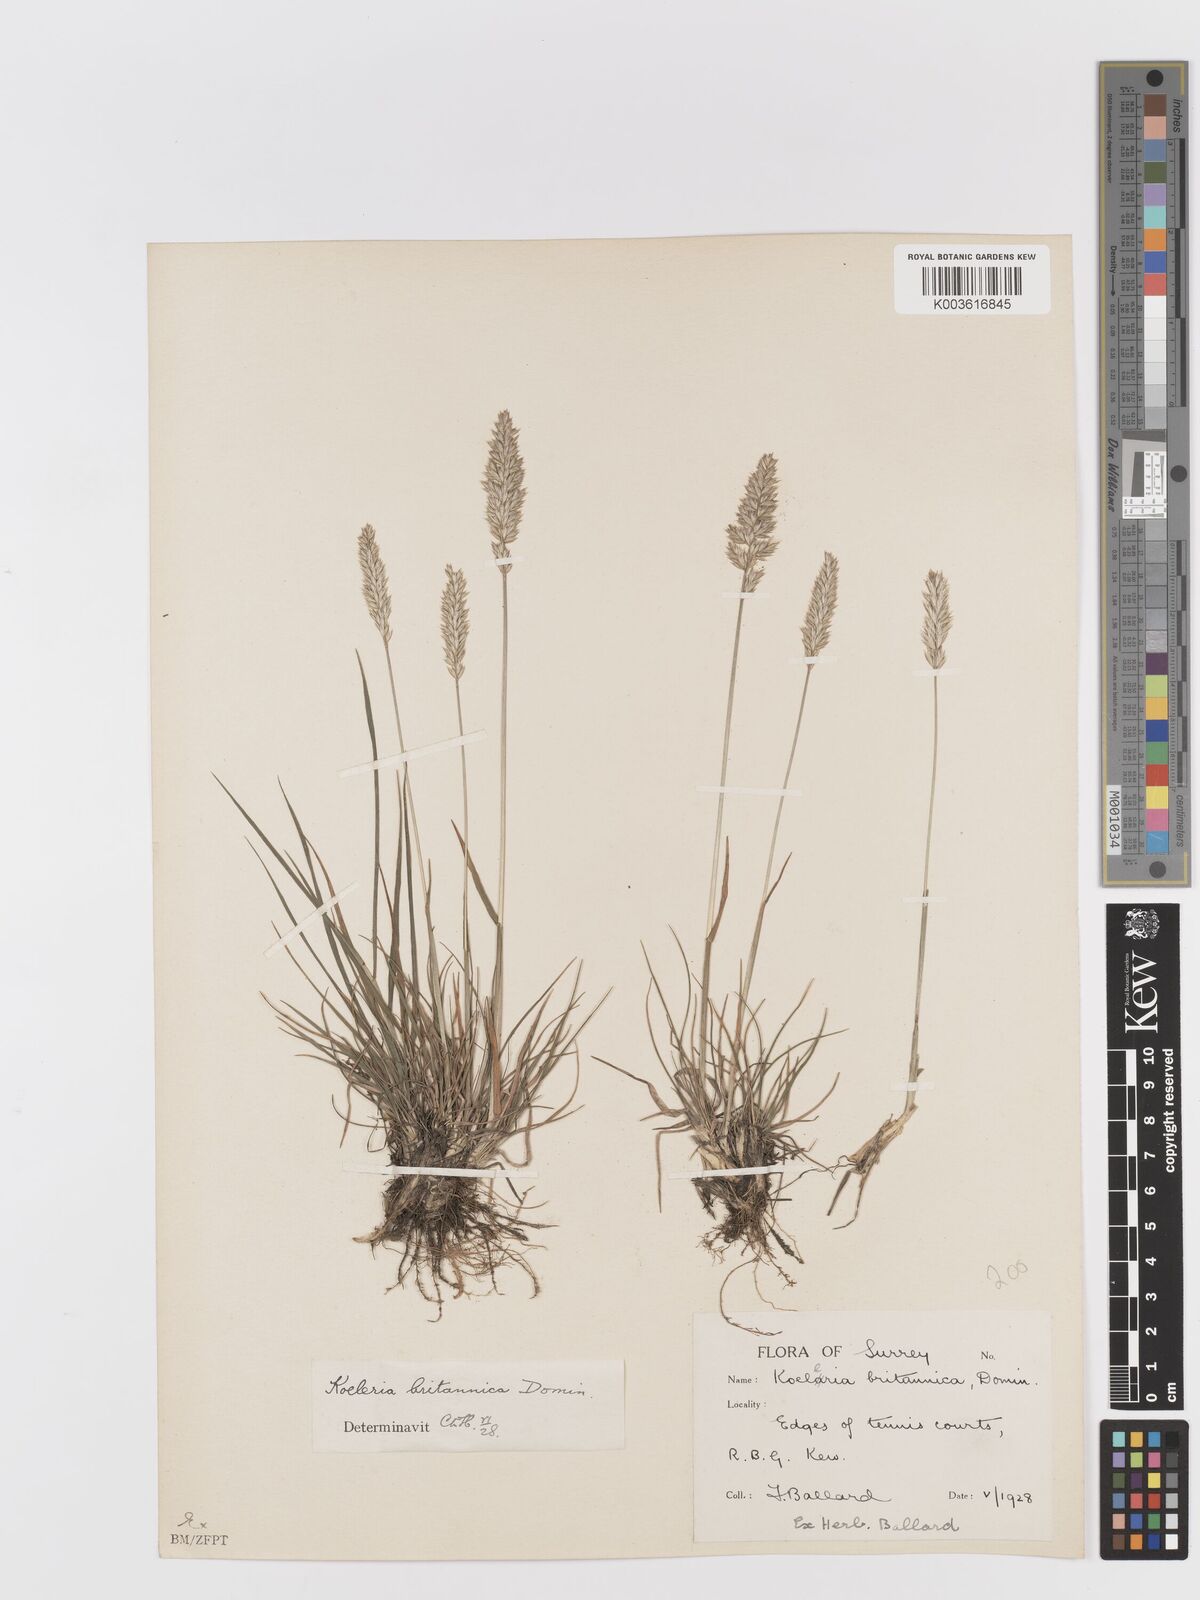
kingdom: Plantae
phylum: Tracheophyta
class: Liliopsida
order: Poales
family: Poaceae
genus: Koeleria
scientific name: Koeleria macrantha
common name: Crested hair-grass
